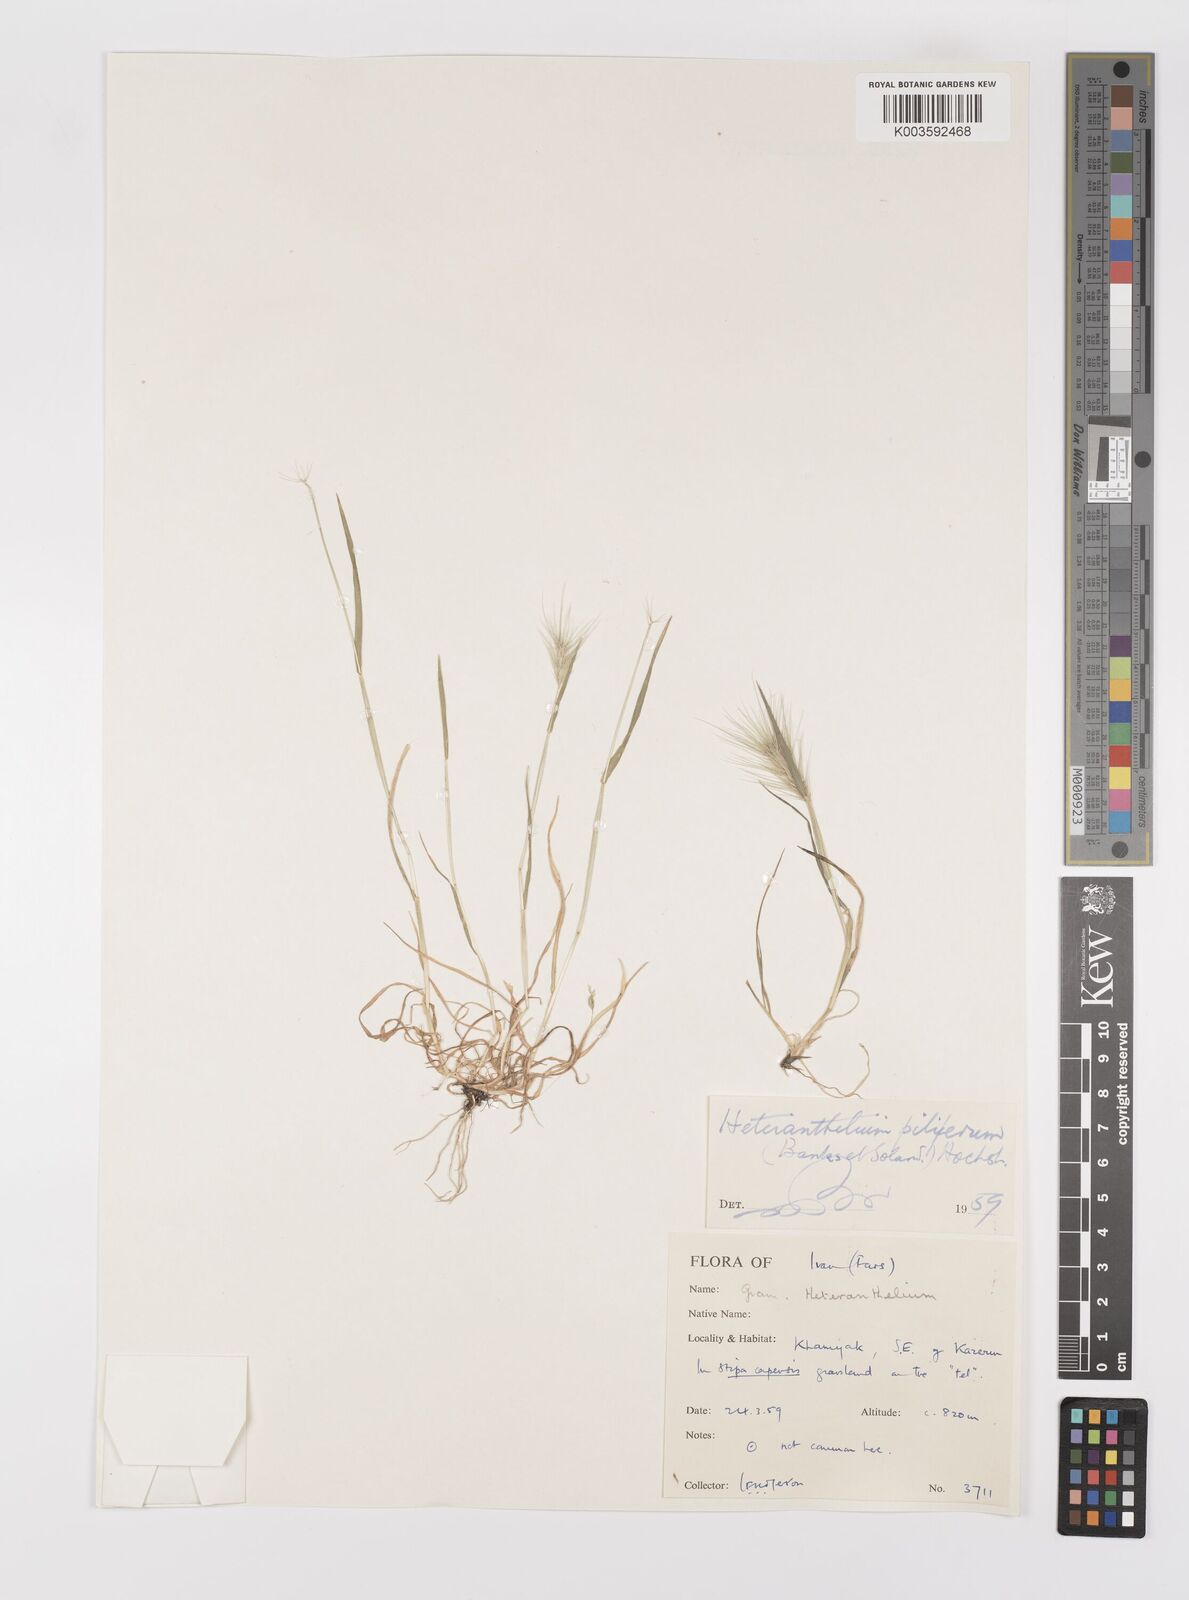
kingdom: Plantae
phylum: Tracheophyta
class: Liliopsida
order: Poales
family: Poaceae
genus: Heteranthelium
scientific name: Heteranthelium piliferum
